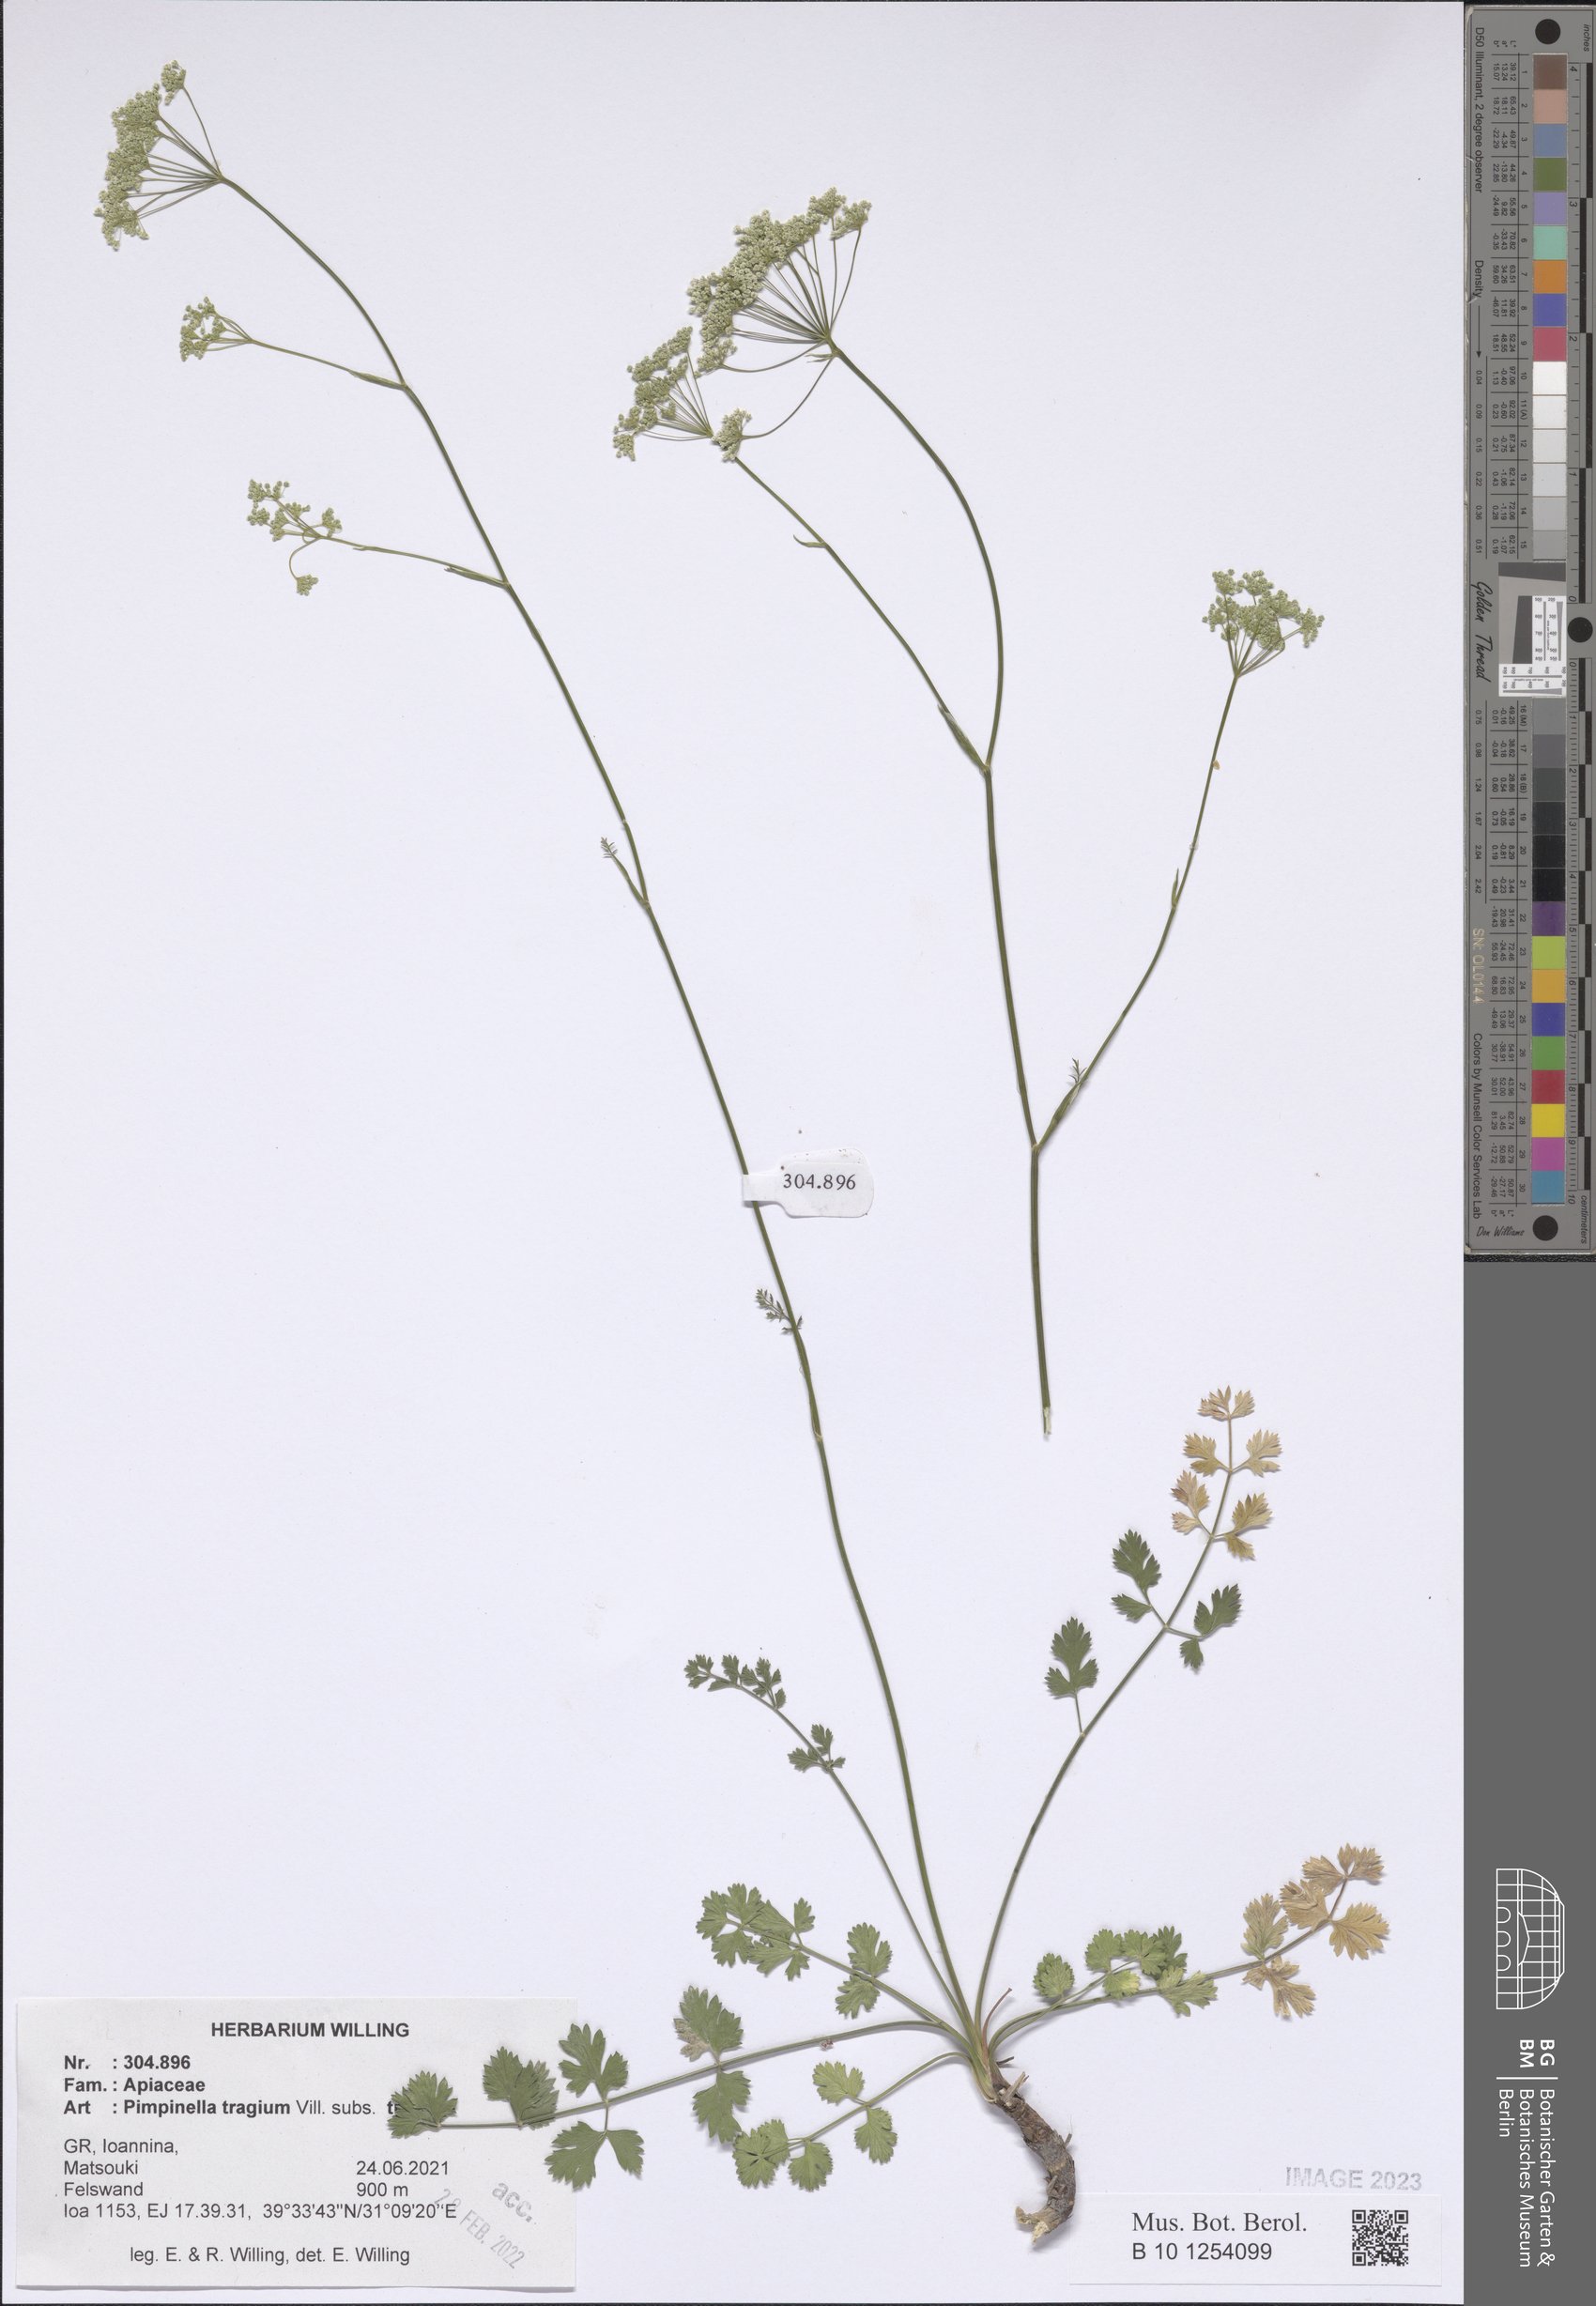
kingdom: Plantae
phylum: Tracheophyta
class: Magnoliopsida
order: Apiales
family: Apiaceae
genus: Pimpinella
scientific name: Pimpinella tragium
